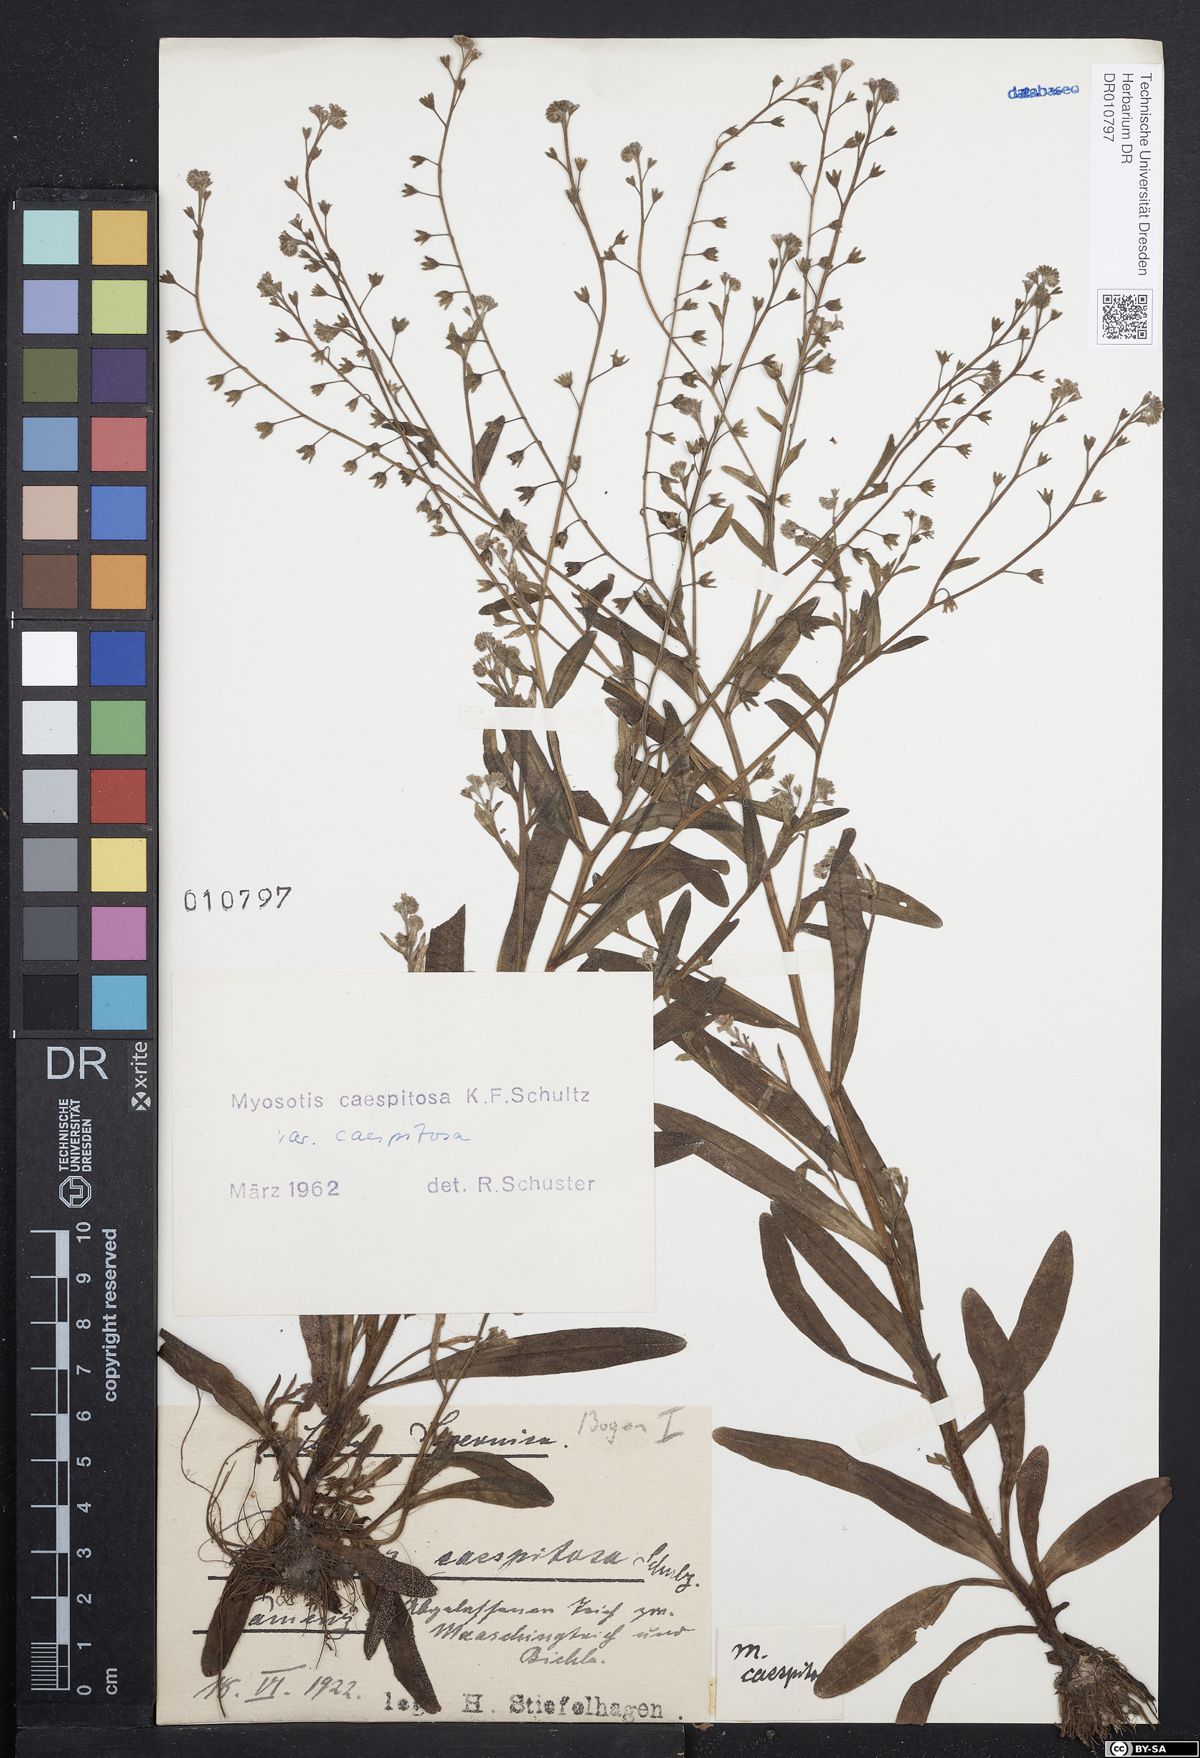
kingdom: Plantae
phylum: Tracheophyta
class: Magnoliopsida
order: Boraginales
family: Boraginaceae
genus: Myosotis
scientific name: Myosotis laxa
